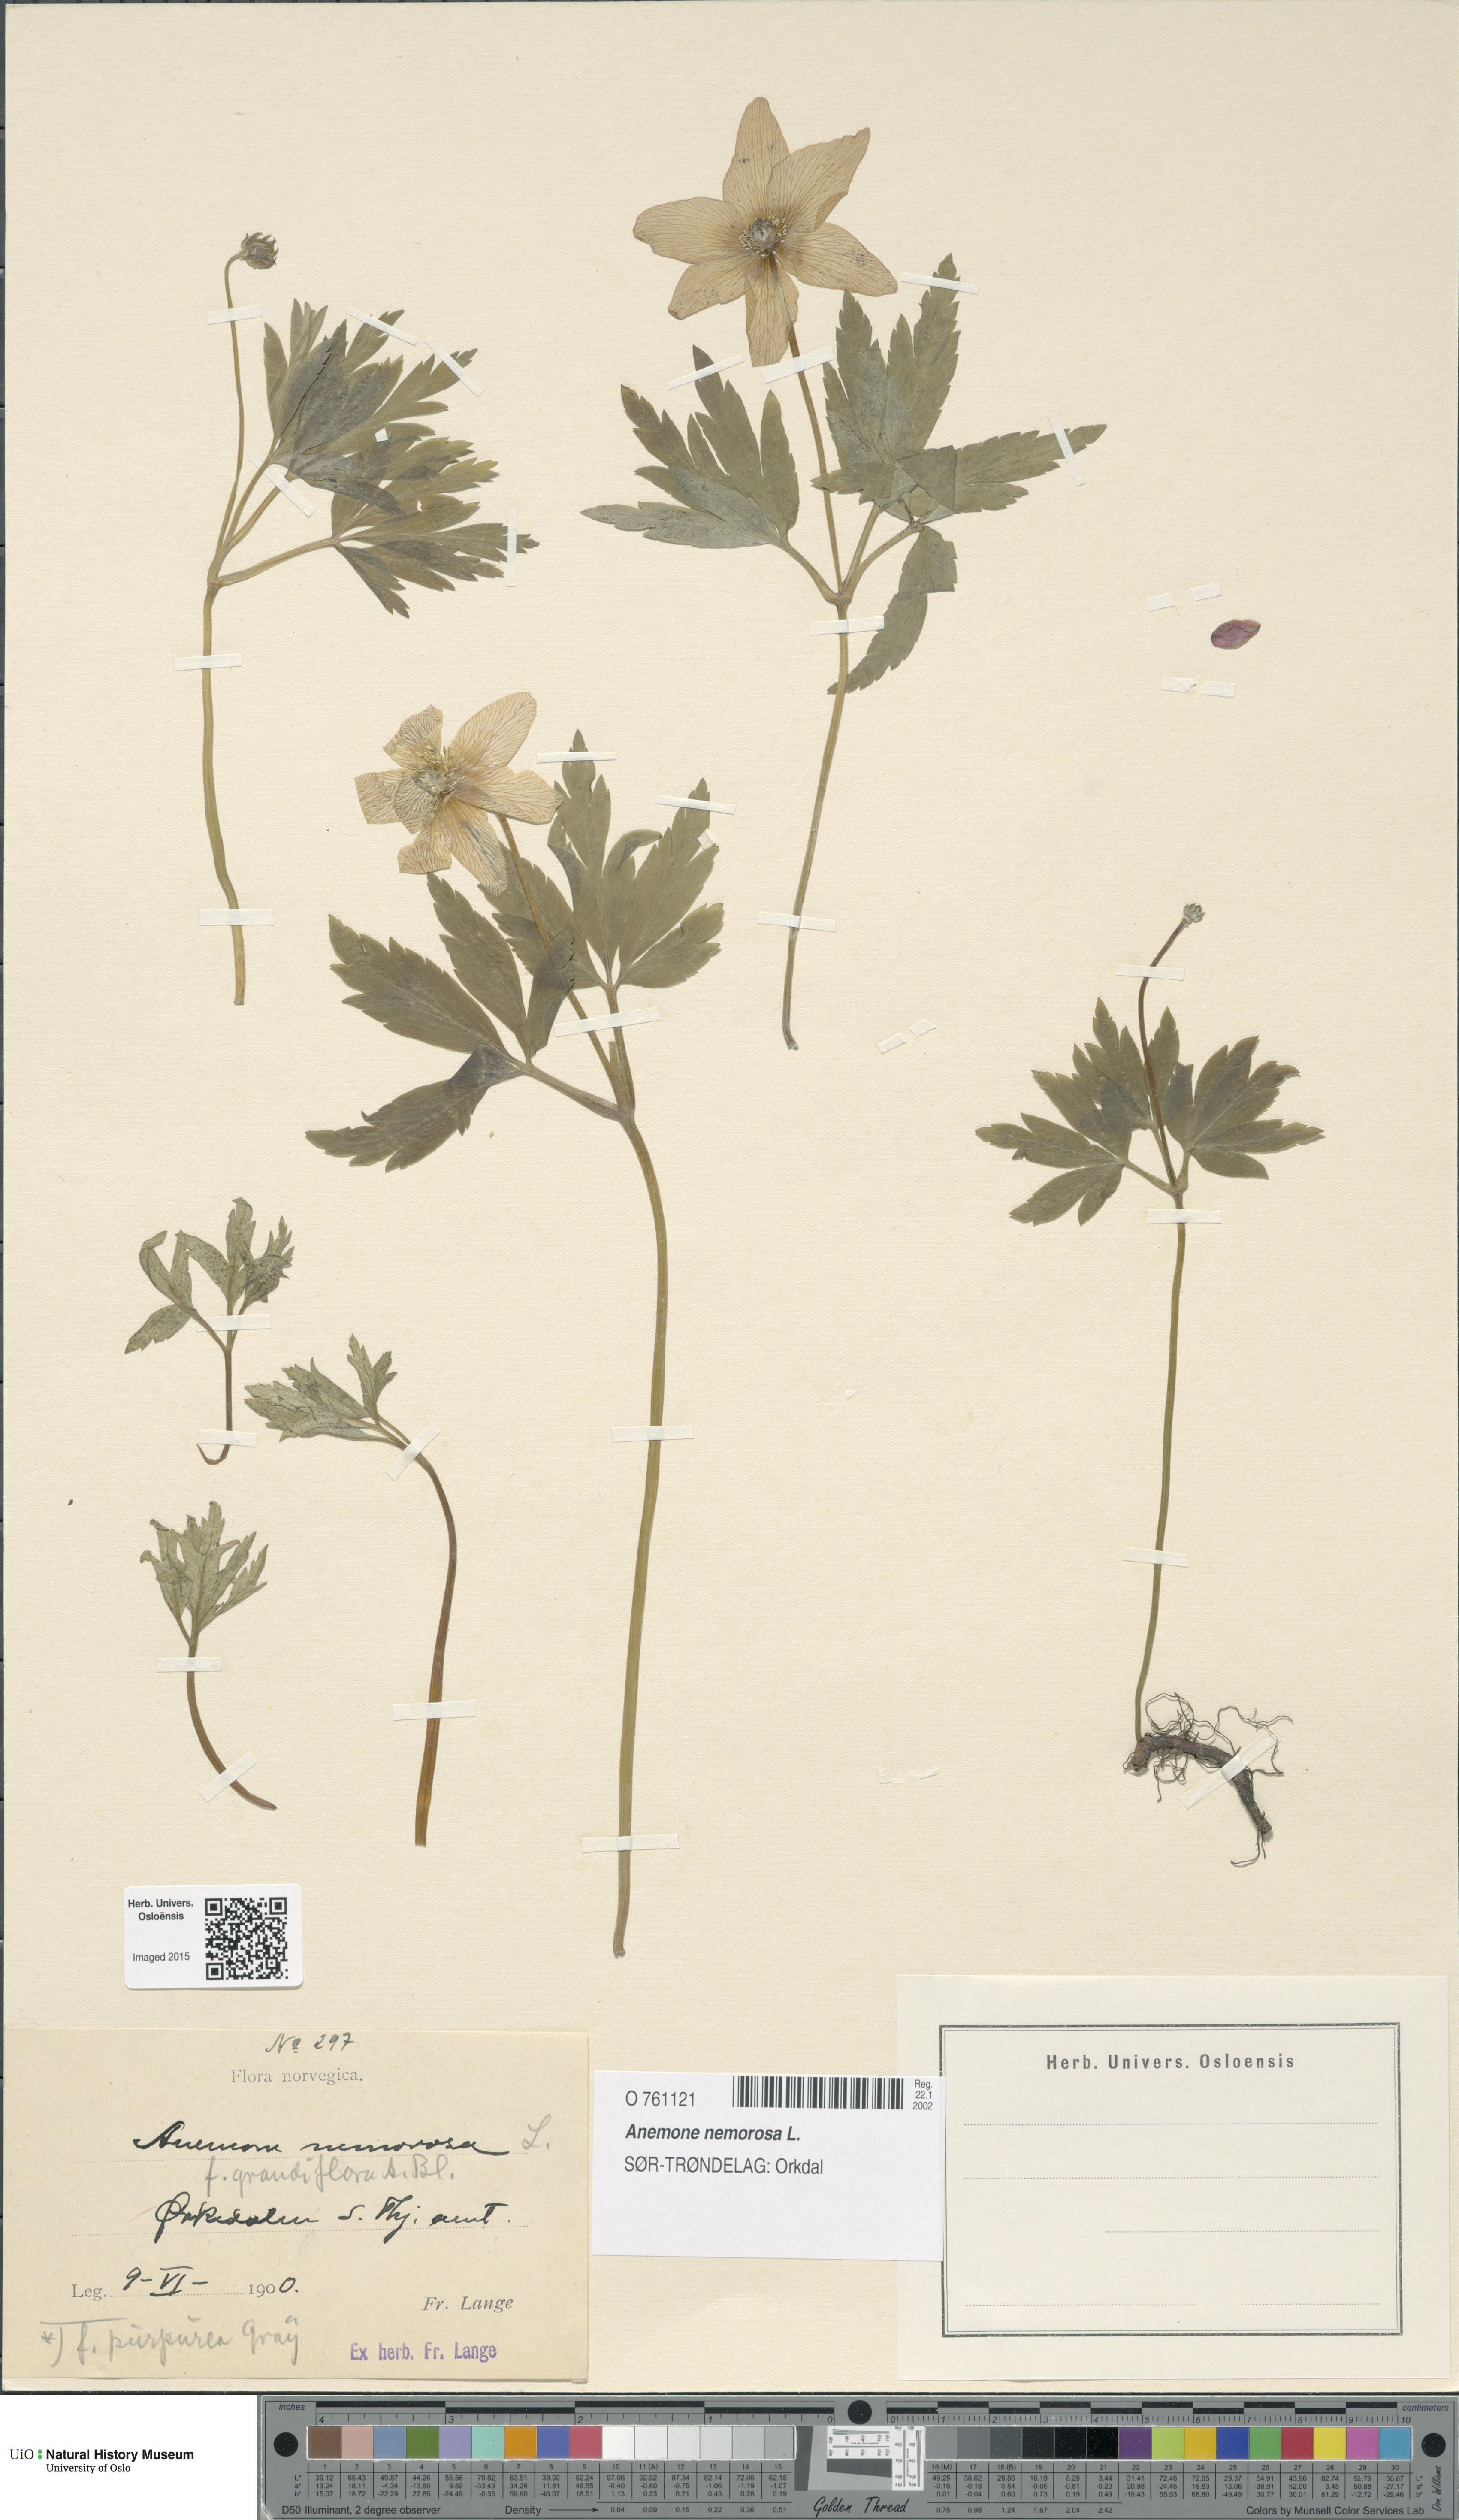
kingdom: Plantae
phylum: Tracheophyta
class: Magnoliopsida
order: Ranunculales
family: Ranunculaceae
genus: Anemone
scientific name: Anemone nemorosa
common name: Wood anemone
